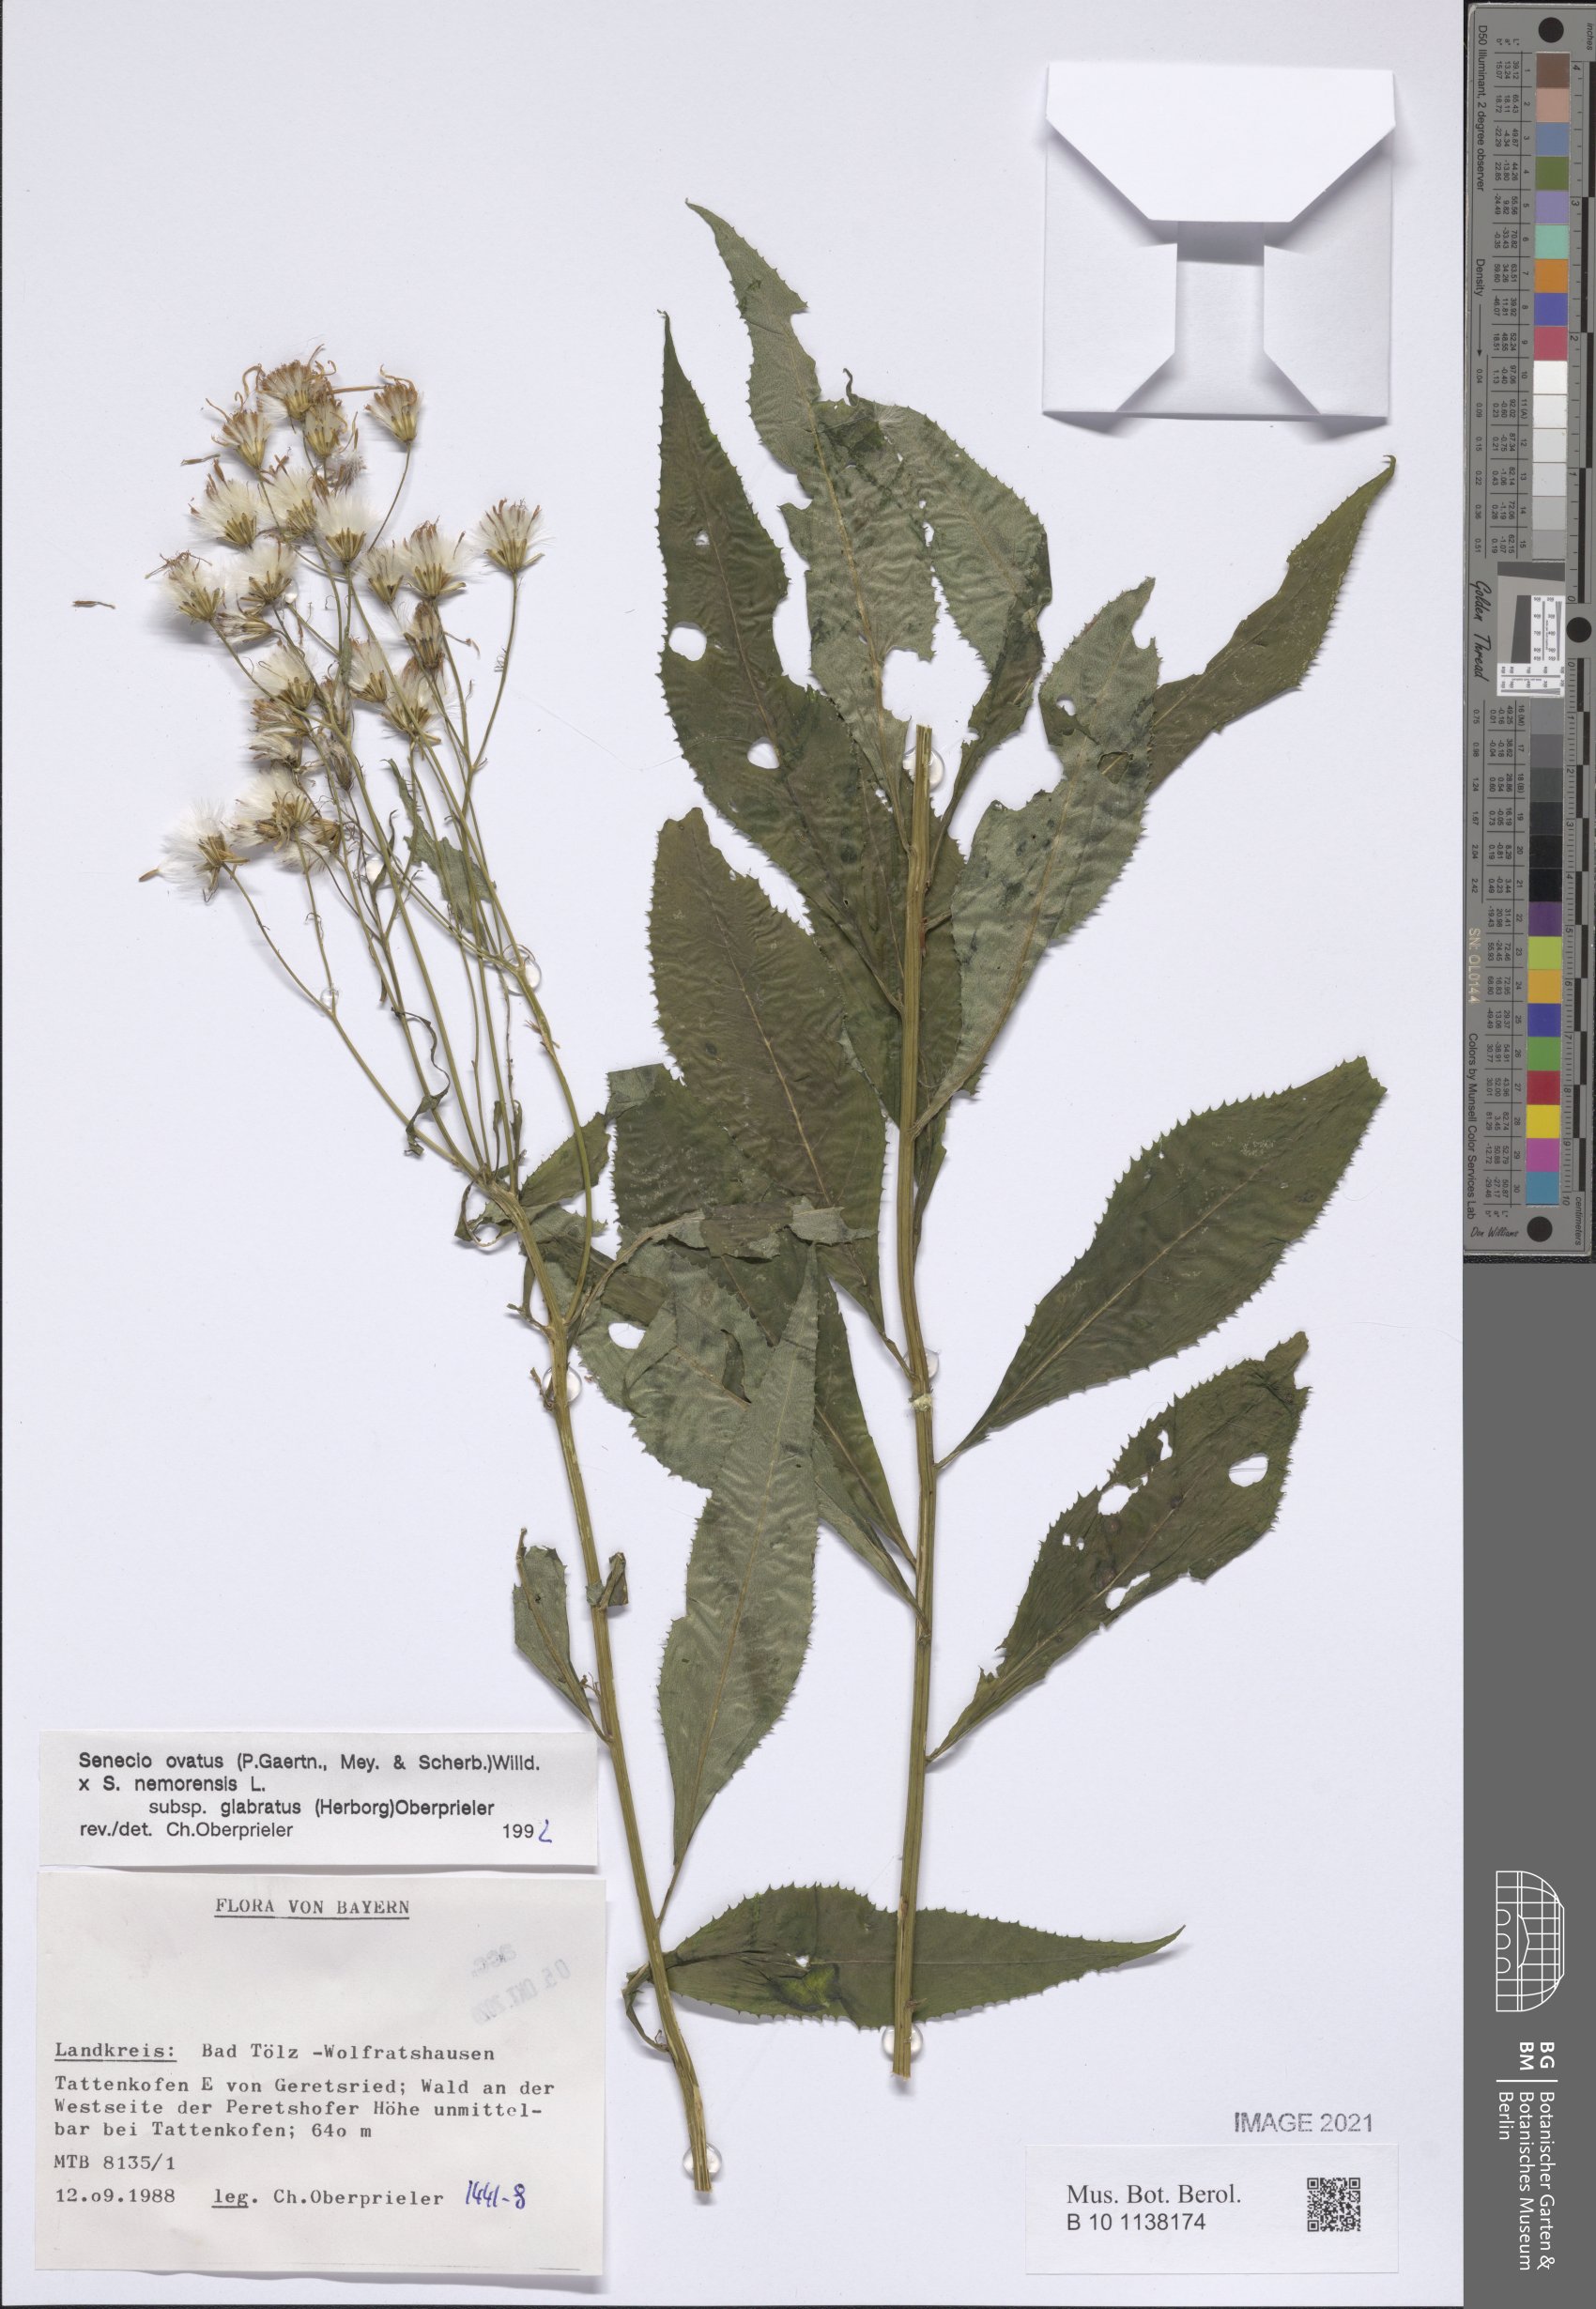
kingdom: Plantae
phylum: Tracheophyta
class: Magnoliopsida
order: Asterales
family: Asteraceae
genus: Senecio
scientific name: Senecio ovatus
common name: Wood ragwort
